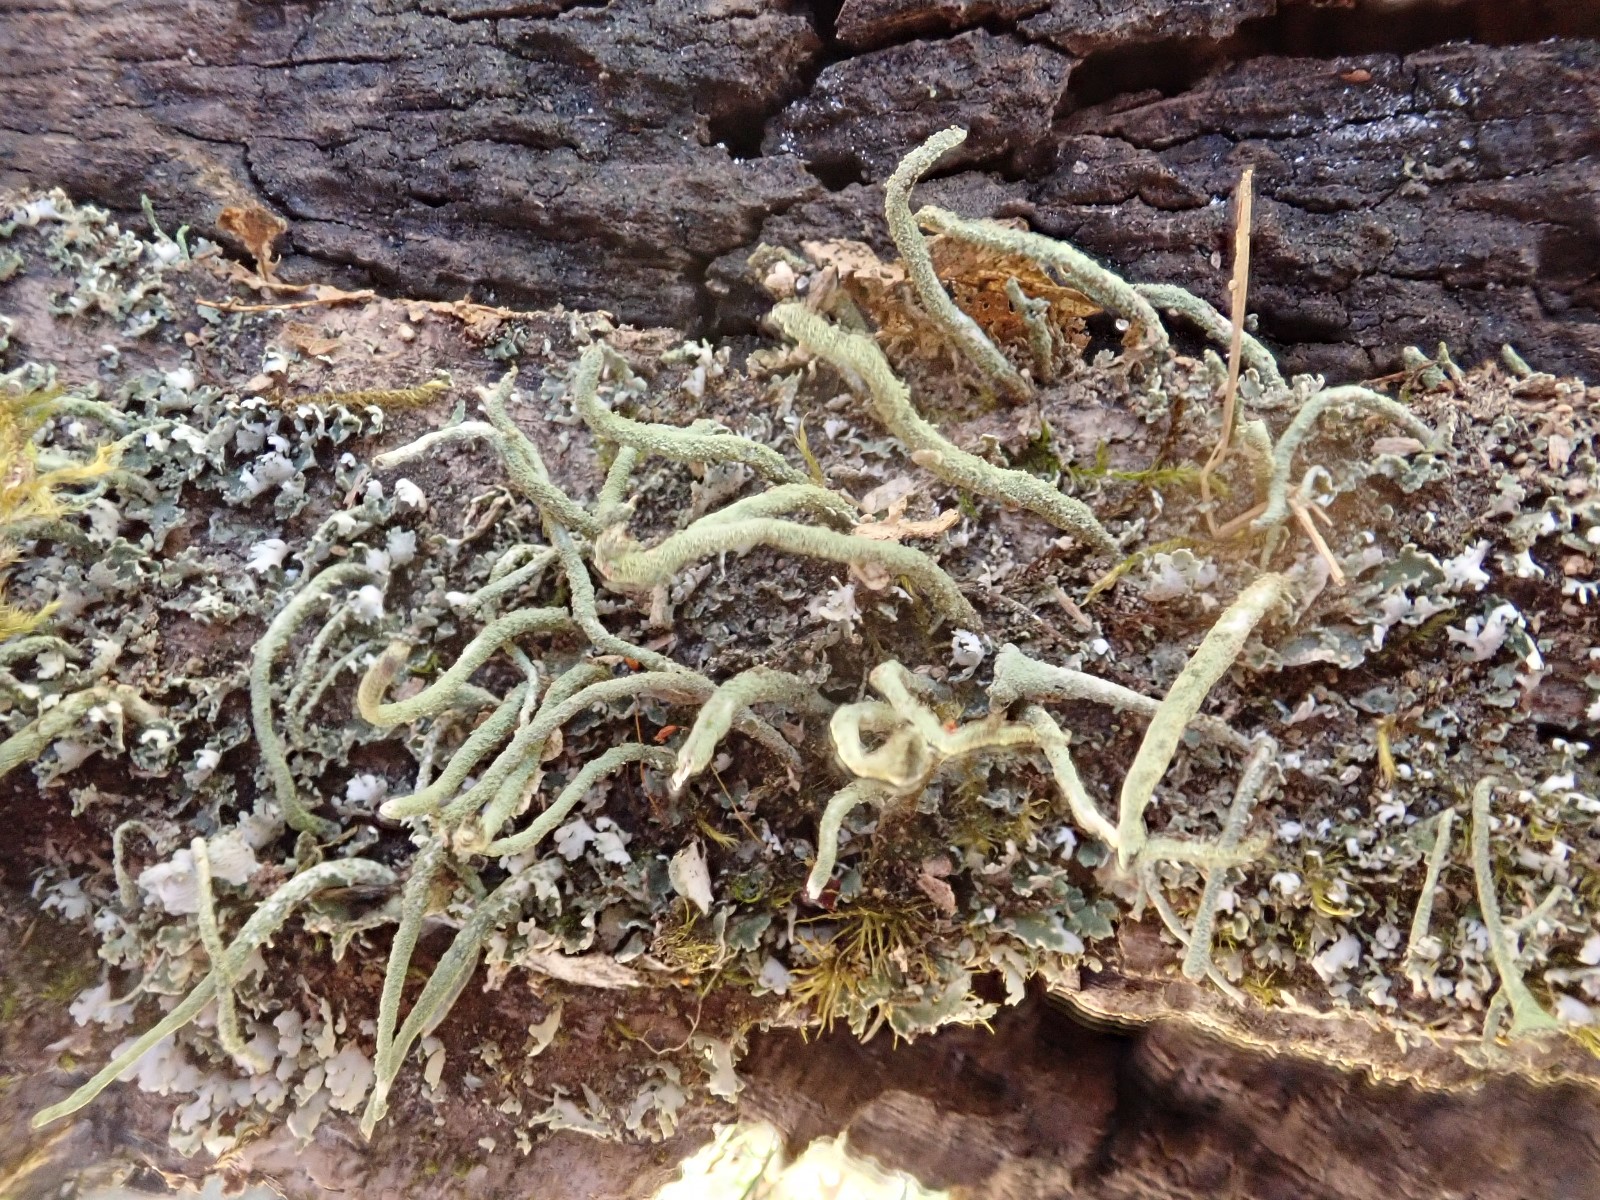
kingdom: Fungi
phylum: Ascomycota
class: Lecanoromycetes
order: Lecanorales
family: Cladoniaceae
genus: Cladonia
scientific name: Cladonia coniocraea
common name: træfods-bægerlav
